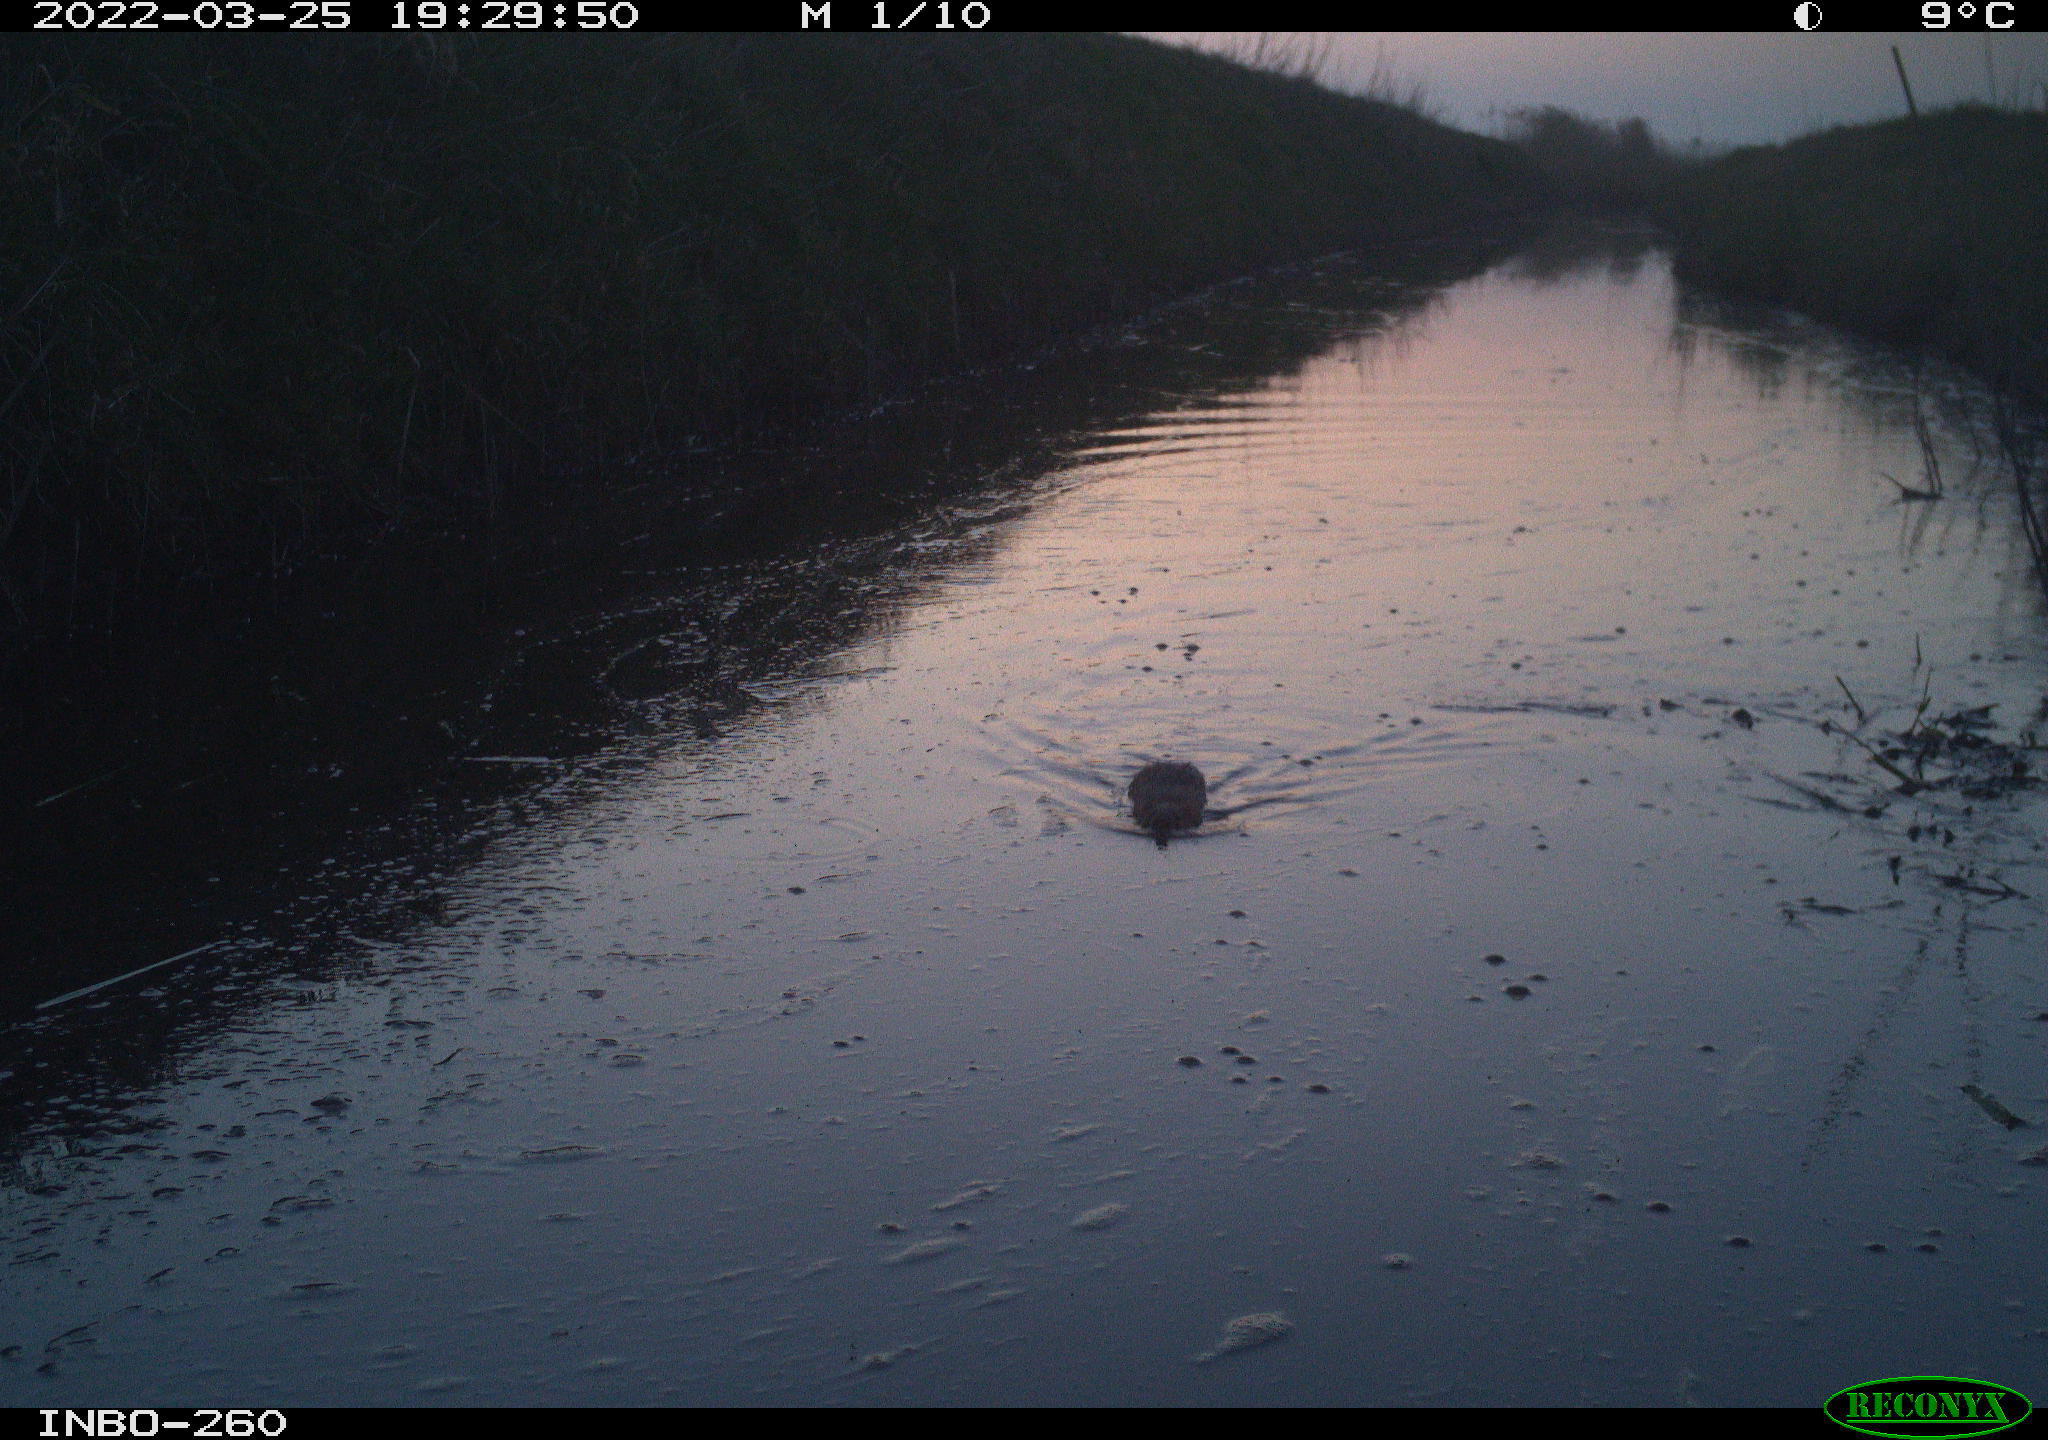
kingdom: Animalia
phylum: Chordata
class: Mammalia
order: Rodentia
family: Muridae
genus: Rattus
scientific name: Rattus norvegicus
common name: Brown rat
